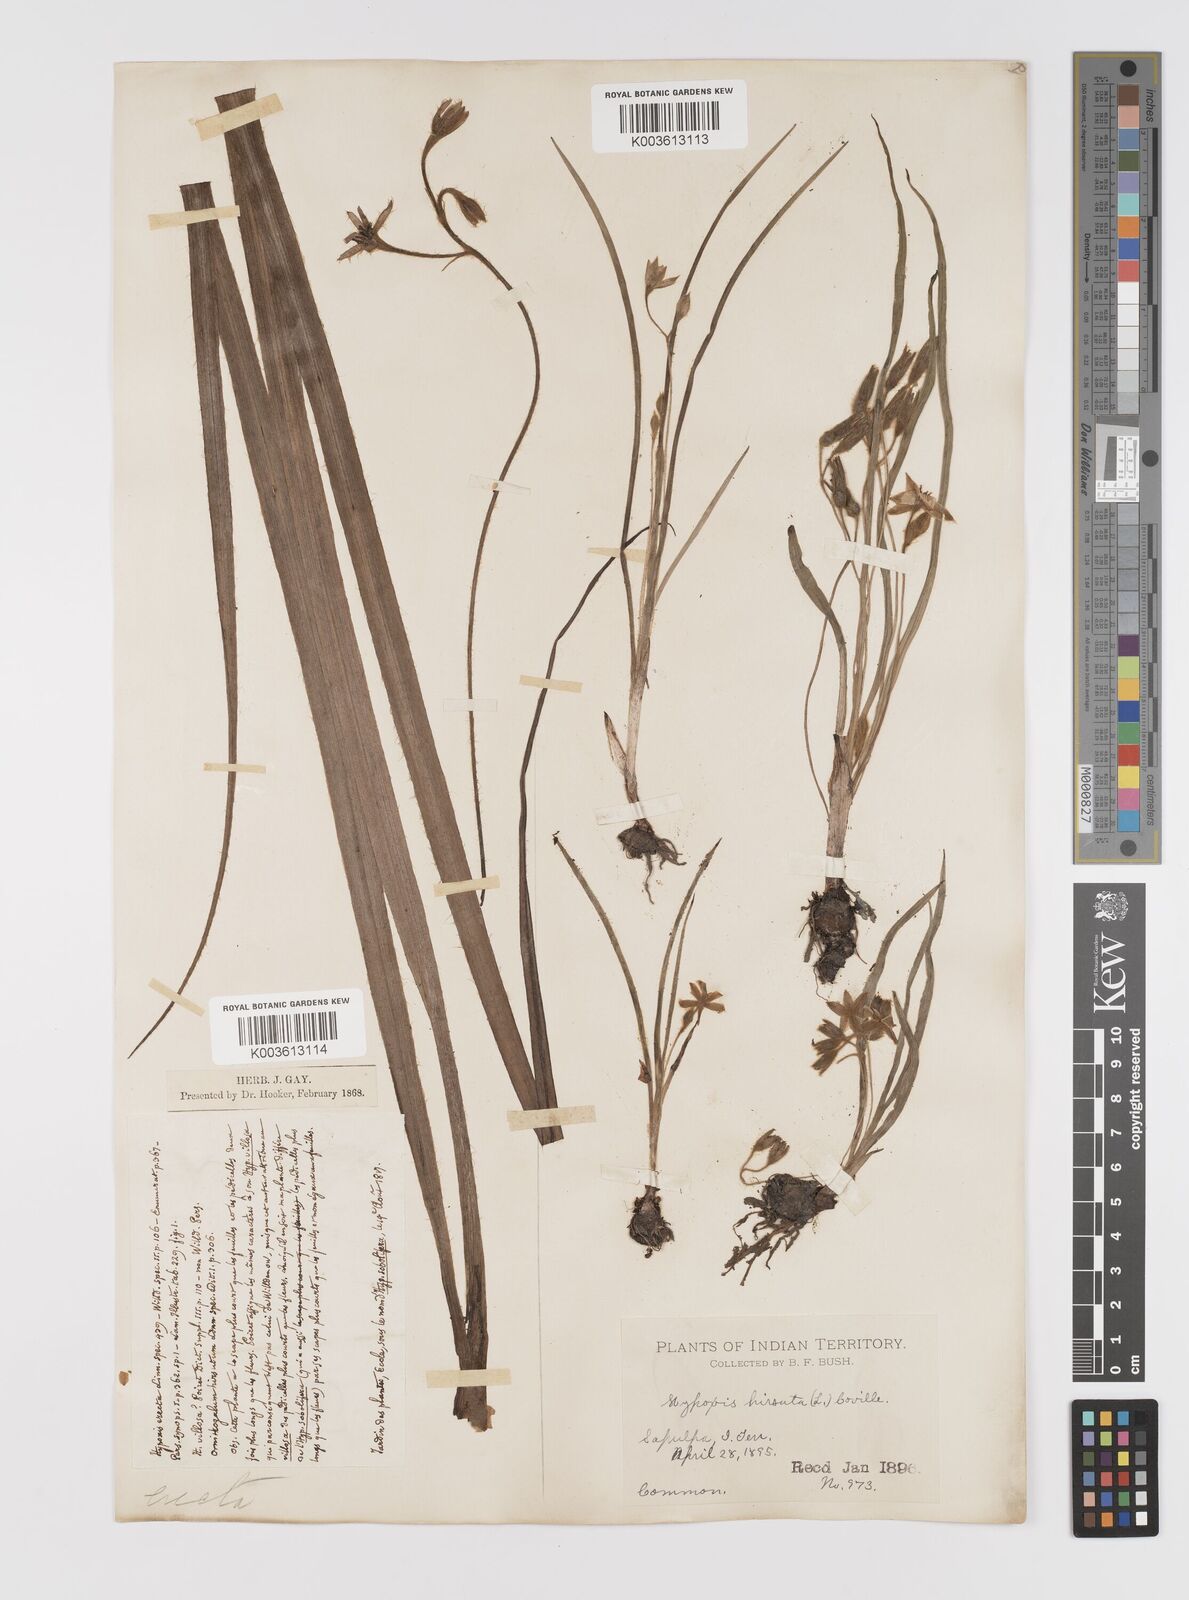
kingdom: Plantae
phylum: Tracheophyta
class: Liliopsida
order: Asparagales
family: Hypoxidaceae
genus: Hypoxis
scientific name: Hypoxis hirsuta
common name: Common goldstar
